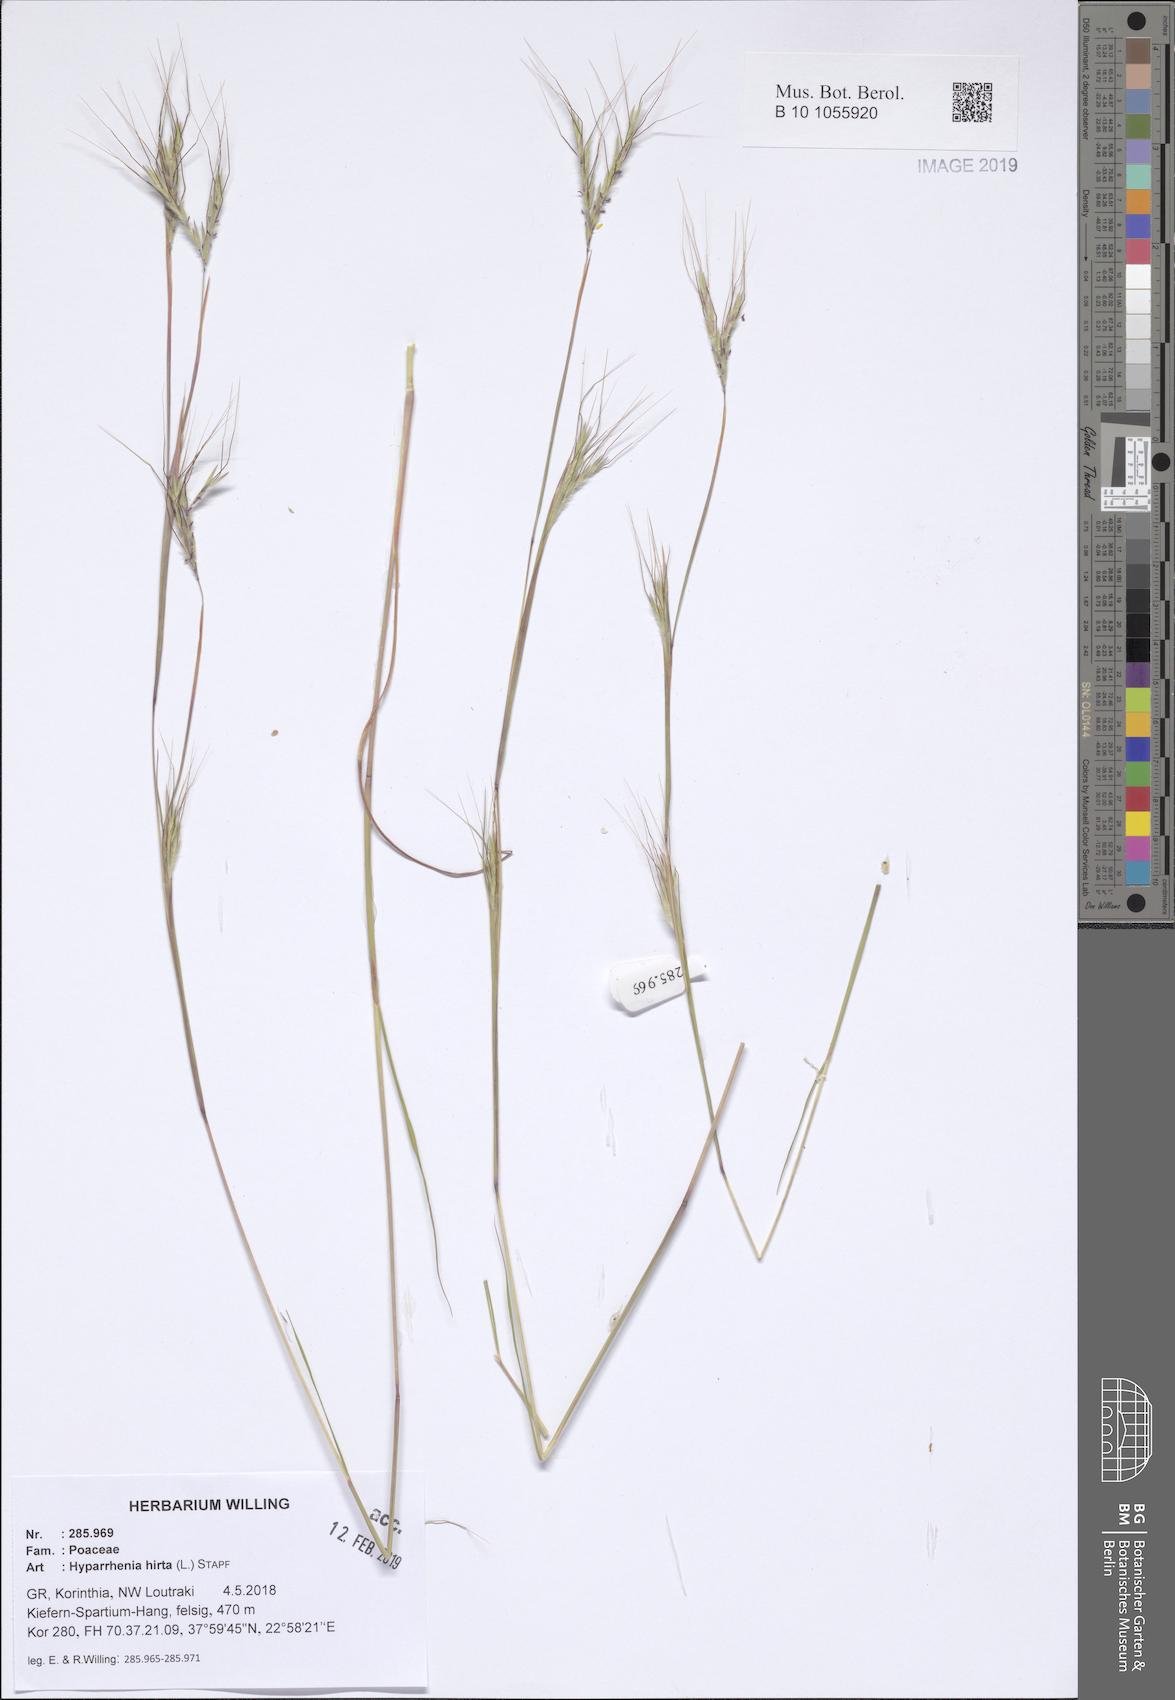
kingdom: Plantae
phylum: Tracheophyta
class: Liliopsida
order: Poales
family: Poaceae
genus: Hyparrhenia
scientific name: Hyparrhenia hirta
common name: Thatching grass
